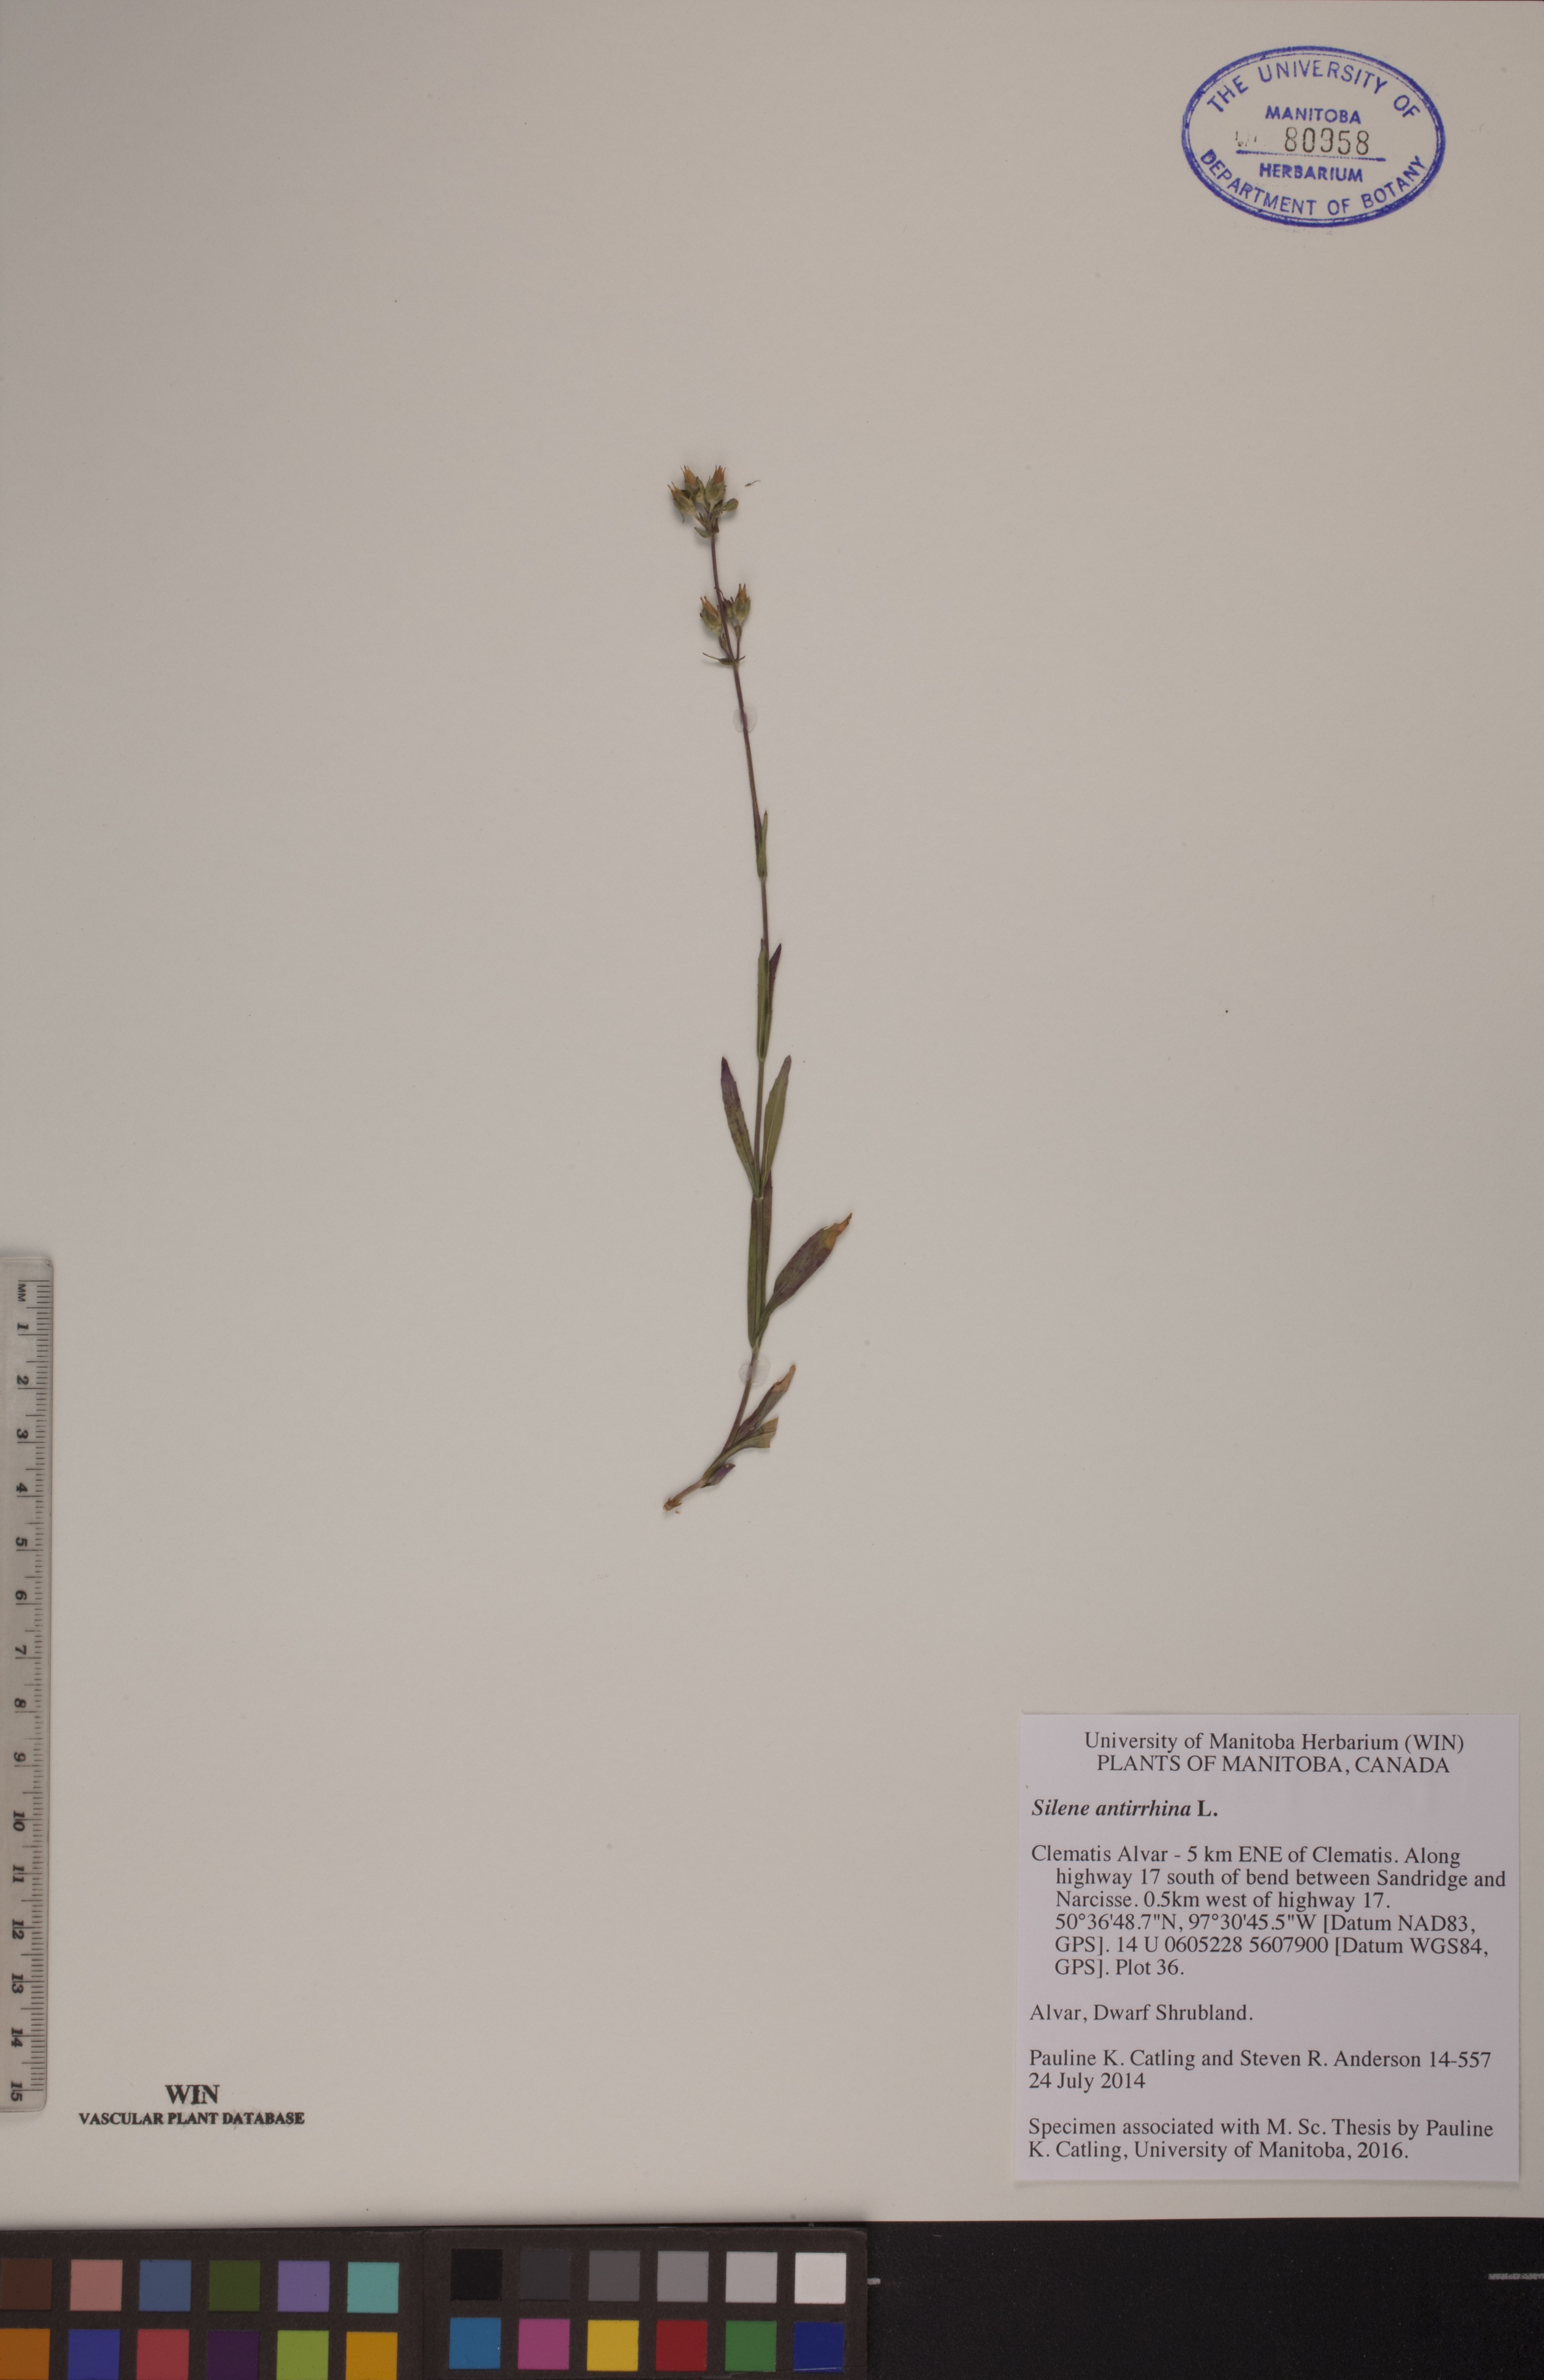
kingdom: Plantae
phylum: Tracheophyta
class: Magnoliopsida
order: Caryophyllales
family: Caryophyllaceae
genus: Silene
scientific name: Silene antirrhina
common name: Sleepy catchfly
